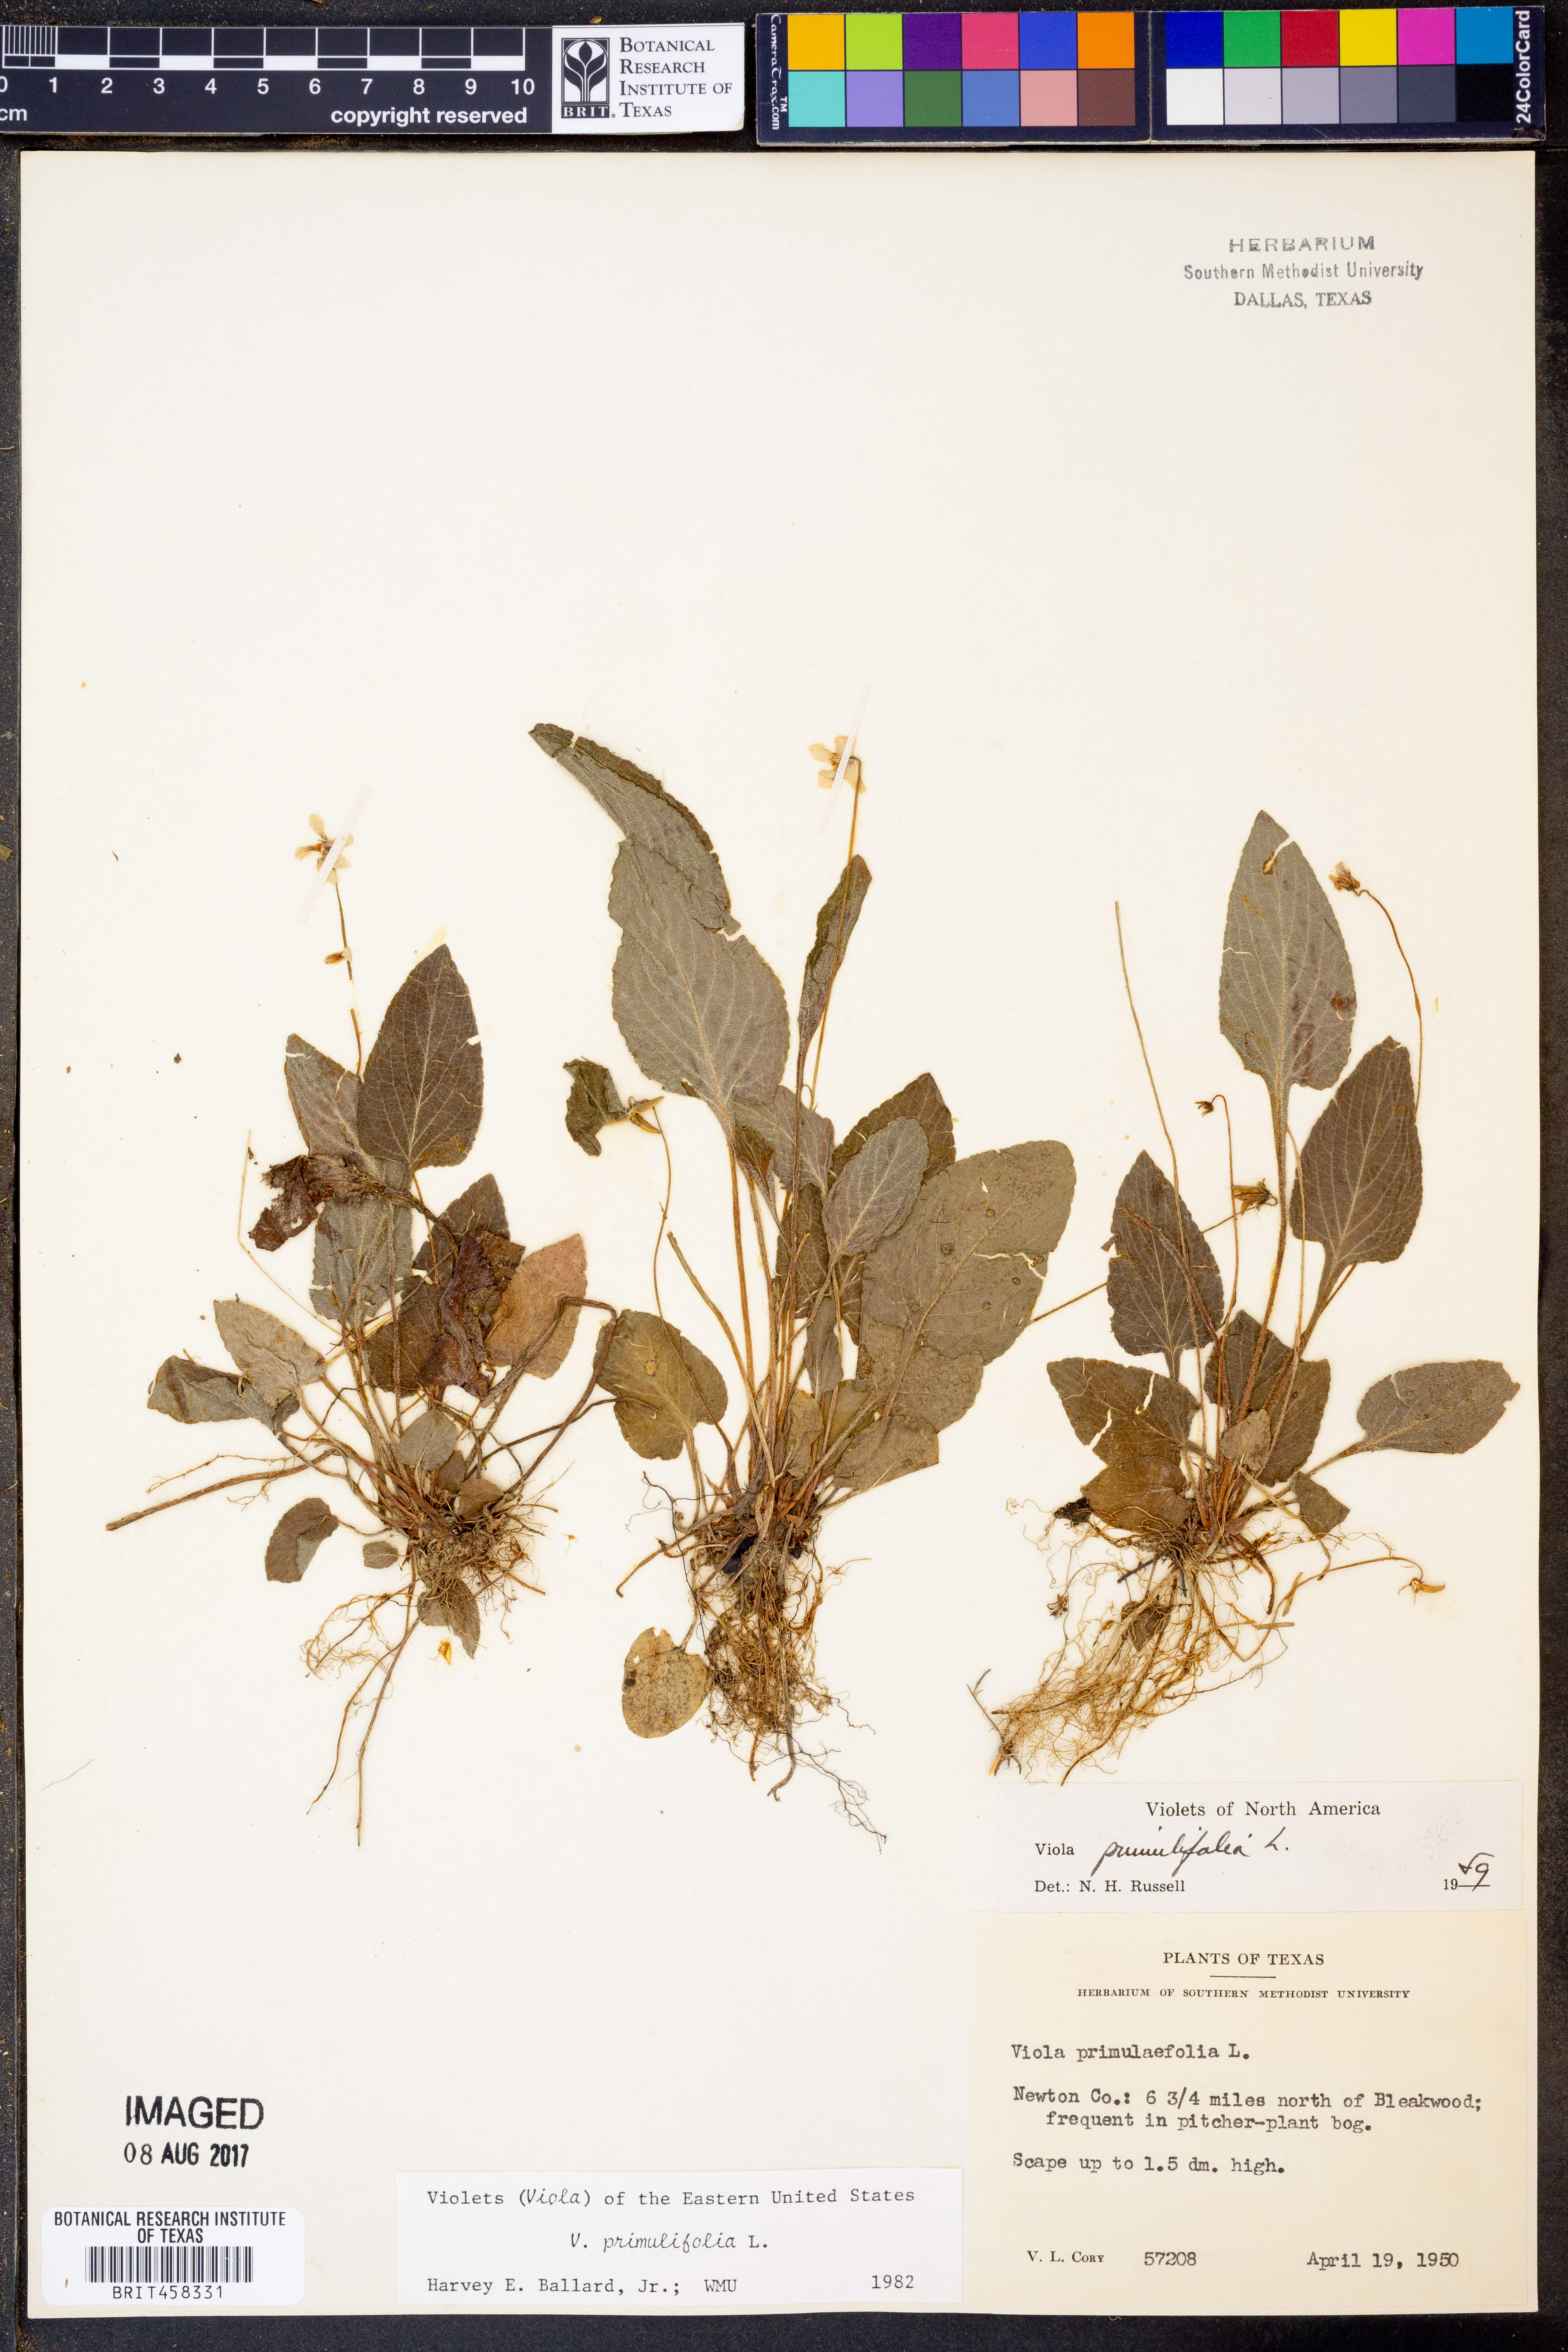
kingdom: Plantae
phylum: Tracheophyta
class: Magnoliopsida
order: Malpighiales
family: Violaceae
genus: Viola
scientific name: Viola primulifolia
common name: Primrose-leaf violet
